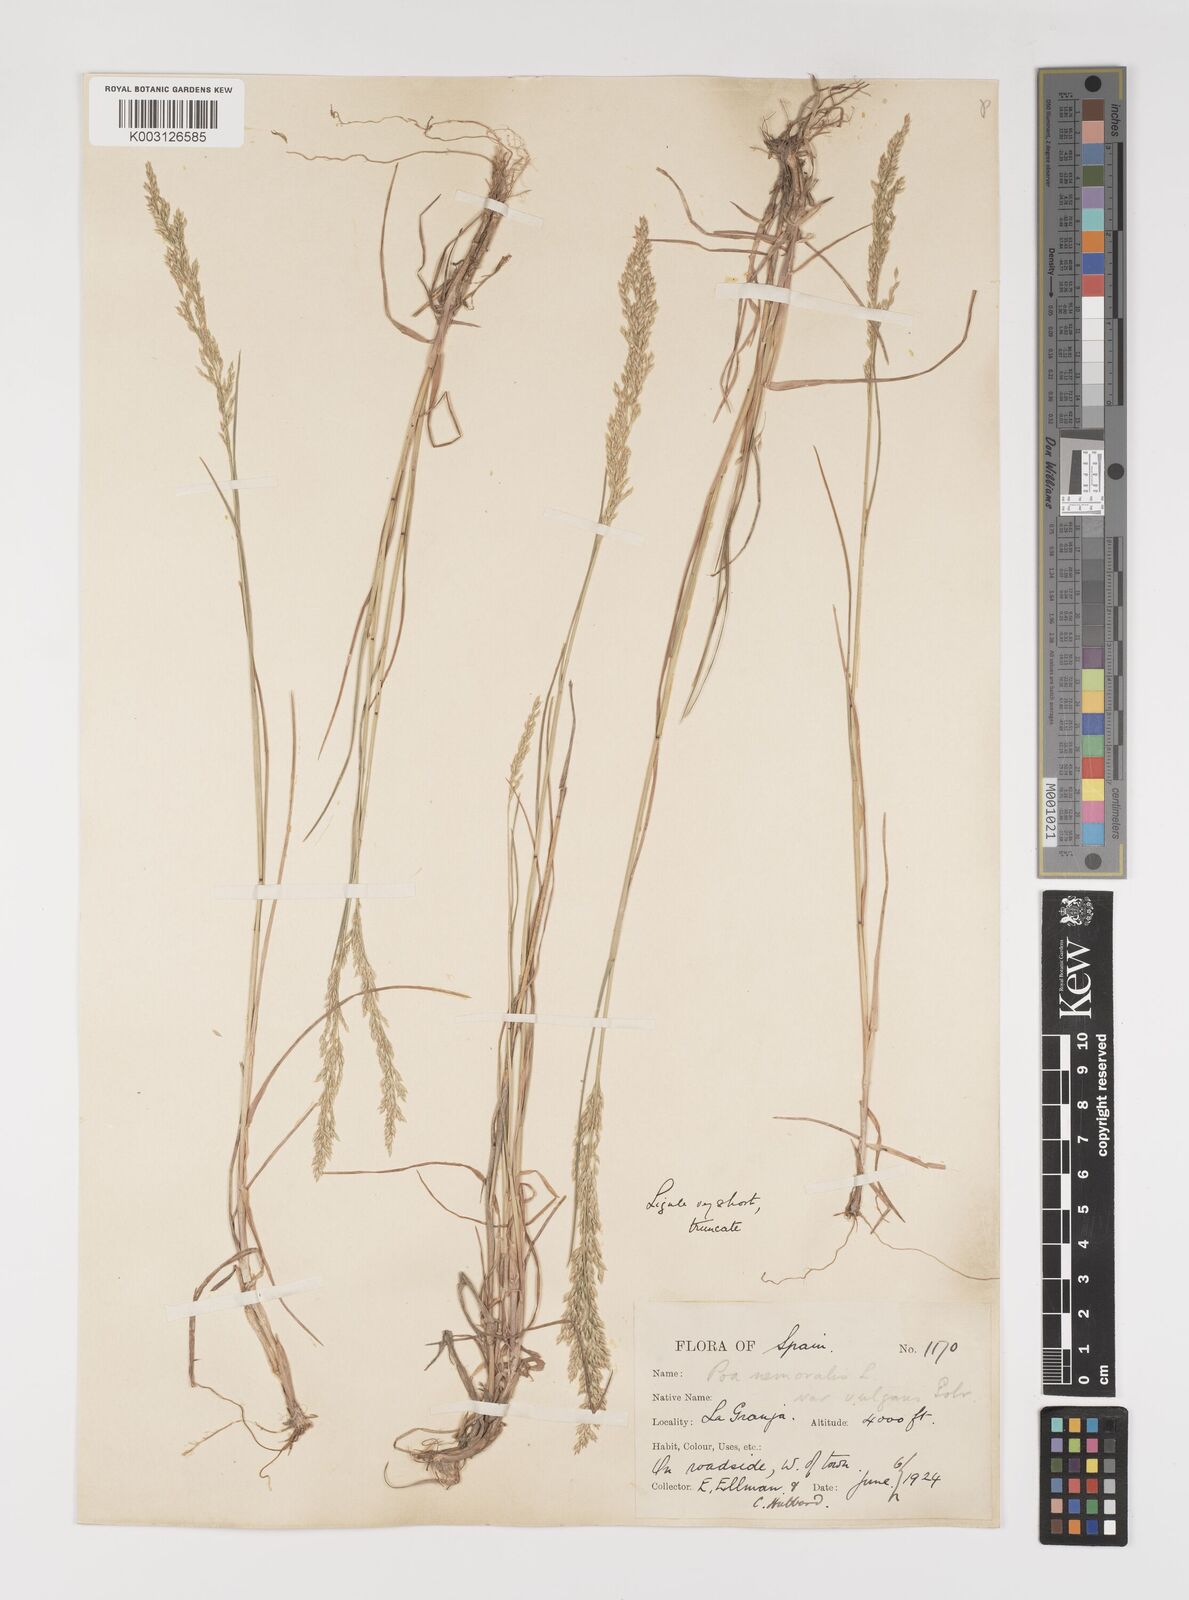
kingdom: Plantae
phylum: Tracheophyta
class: Liliopsida
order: Poales
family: Poaceae
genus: Poa
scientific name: Poa nemoralis
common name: Wood bluegrass
